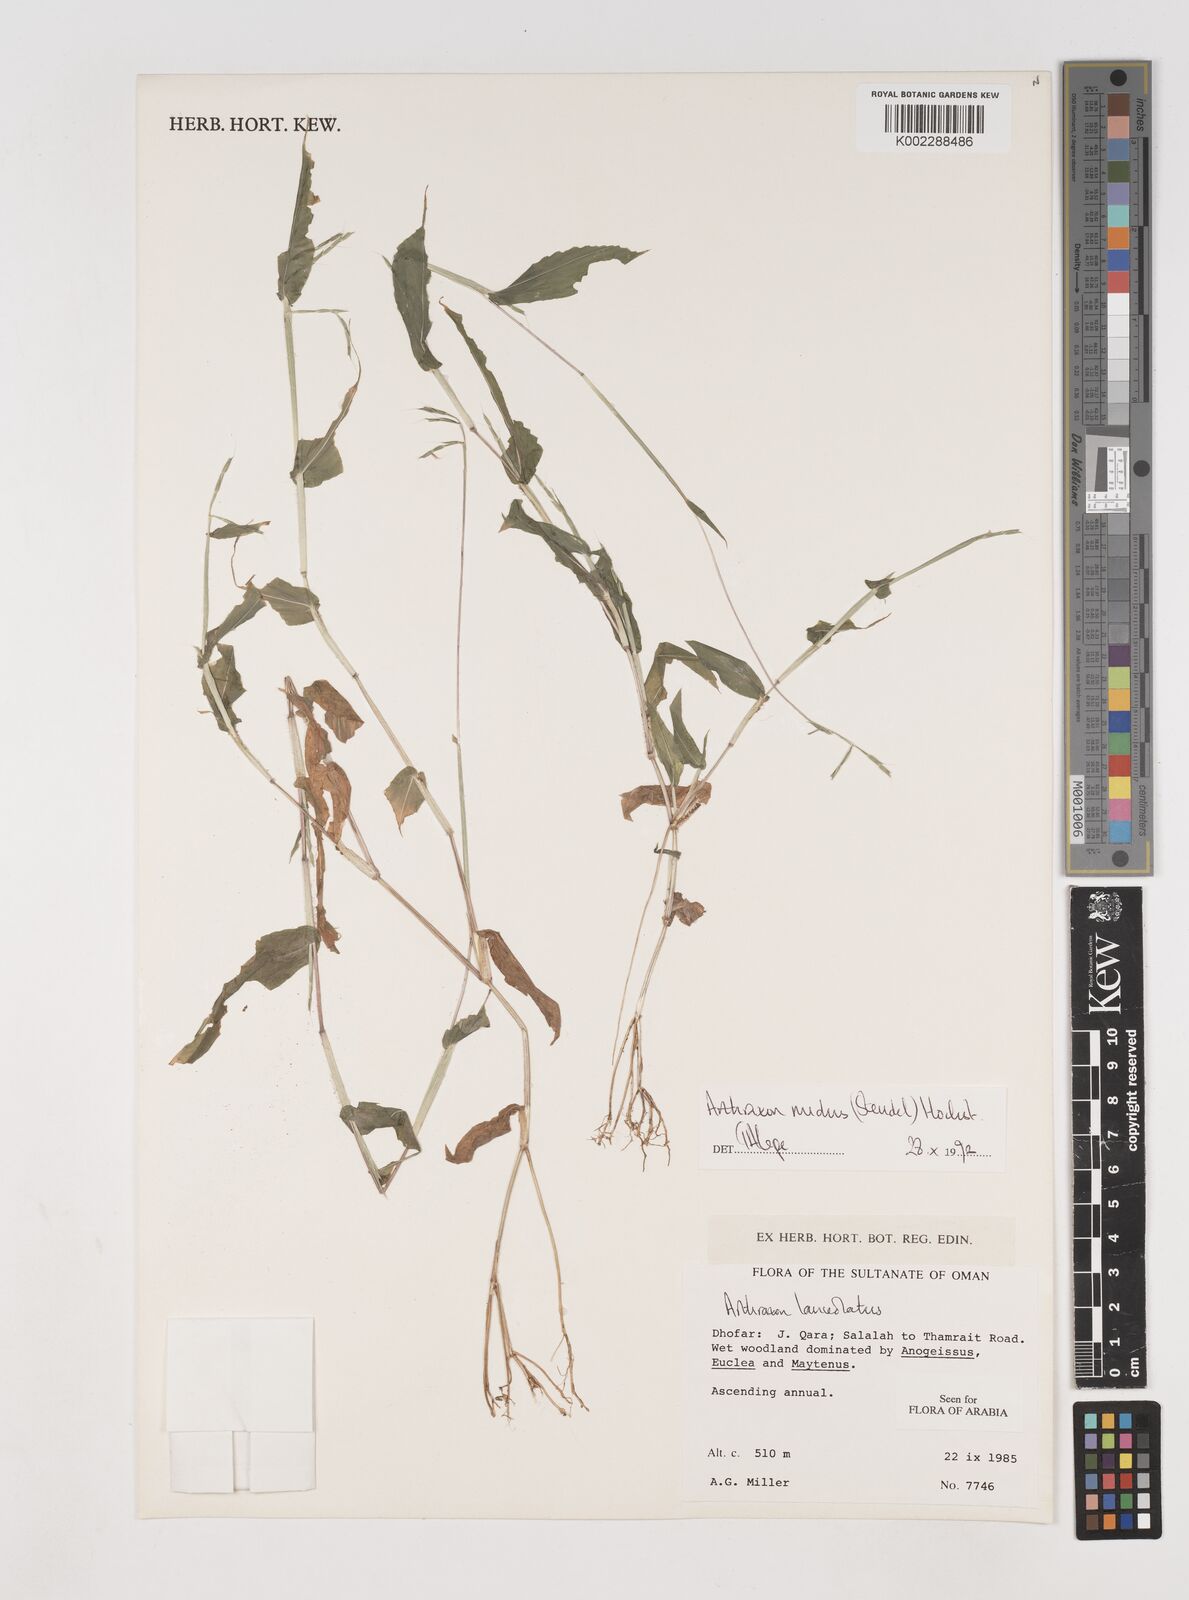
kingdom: Plantae
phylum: Tracheophyta
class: Liliopsida
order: Poales
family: Poaceae
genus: Arthraxon
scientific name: Arthraxon nudus
